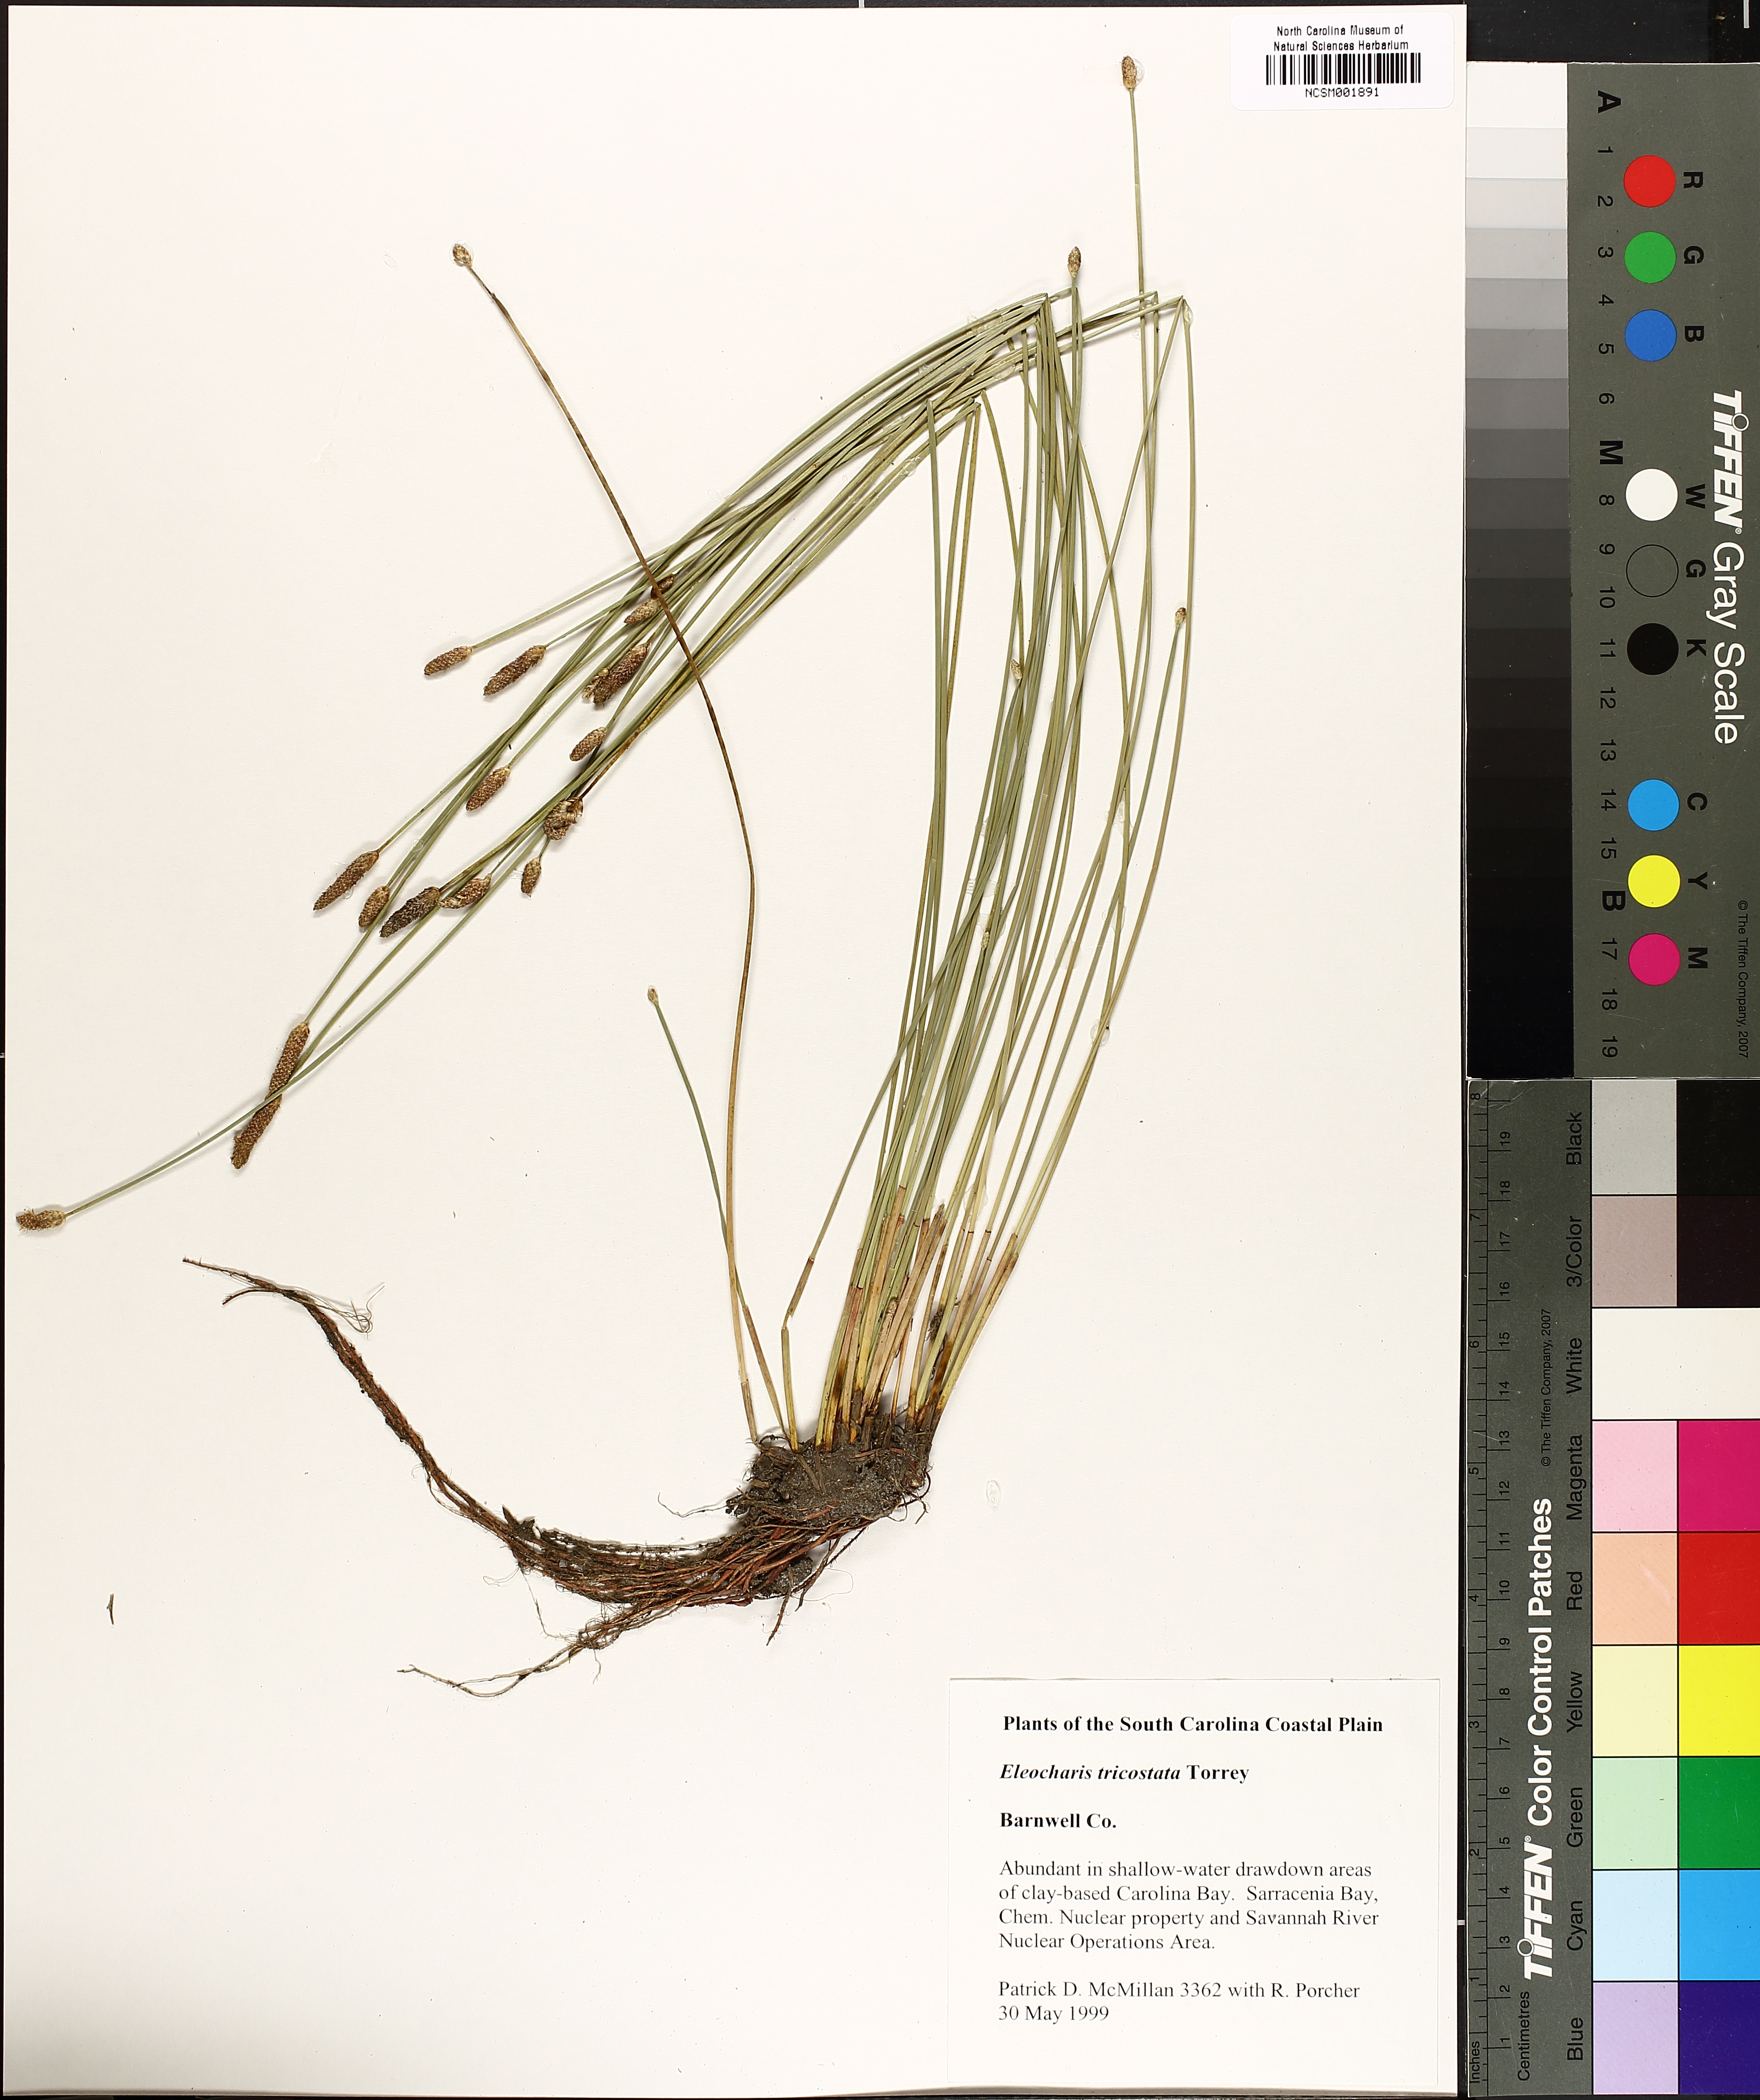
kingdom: Plantae
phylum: Tracheophyta
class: Liliopsida
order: Poales
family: Cyperaceae
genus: Eleocharis
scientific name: Eleocharis tricostata
